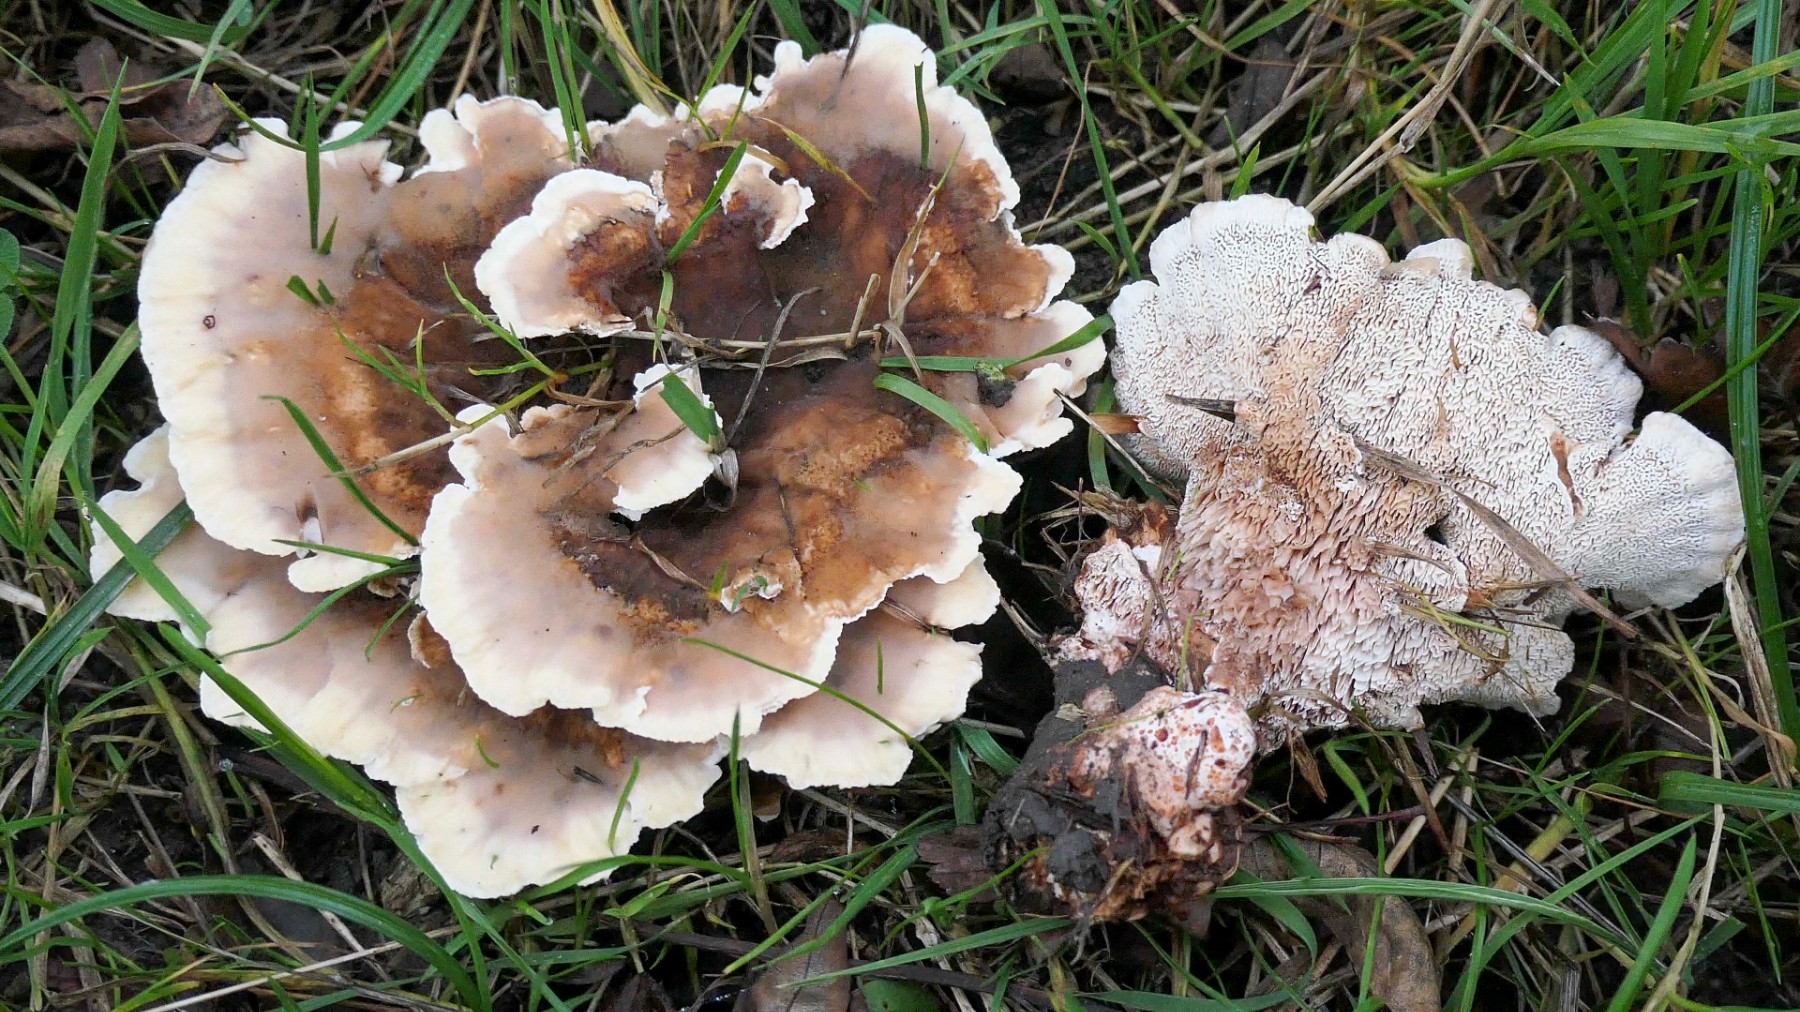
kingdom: Fungi
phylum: Basidiomycota
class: Agaricomycetes
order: Polyporales
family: Podoscyphaceae
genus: Abortiporus
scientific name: Abortiporus biennis
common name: rødmende pjalteporesvamp
